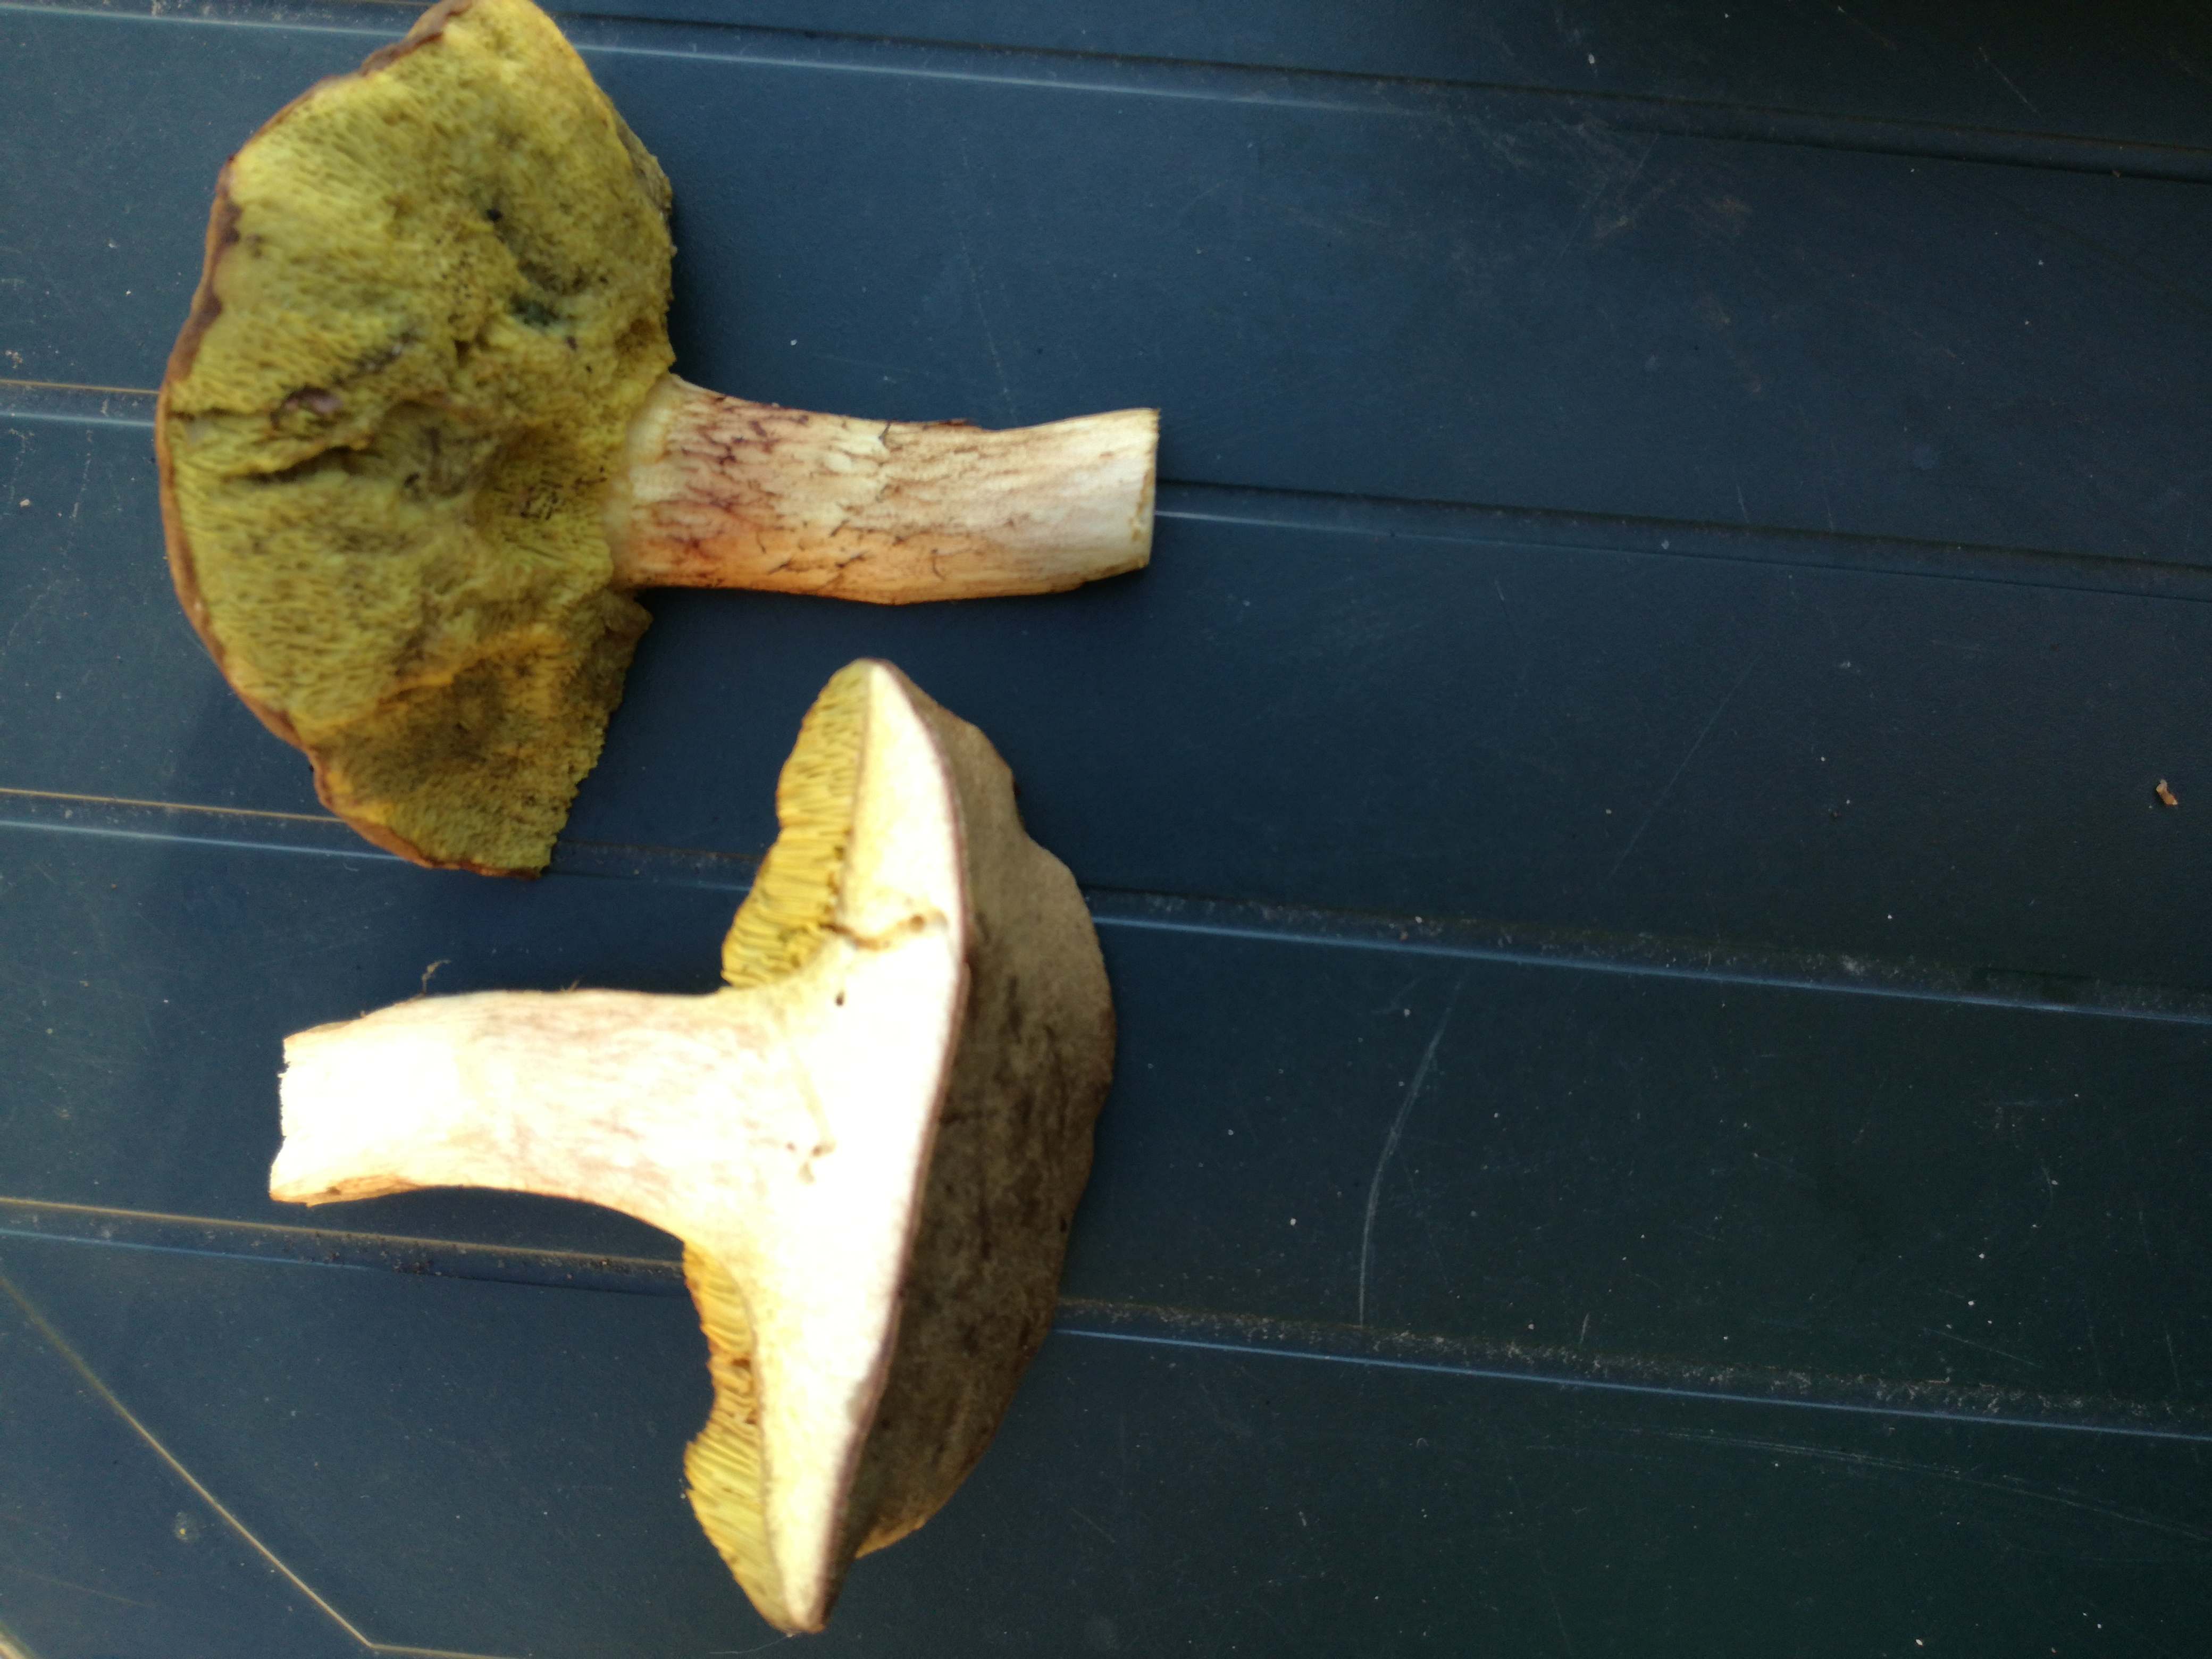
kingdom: Fungi
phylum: Basidiomycota
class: Agaricomycetes
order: Boletales
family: Boletaceae
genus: Xerocomus
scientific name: Xerocomus ferrugineus
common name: vaskeskinds-rørhat
